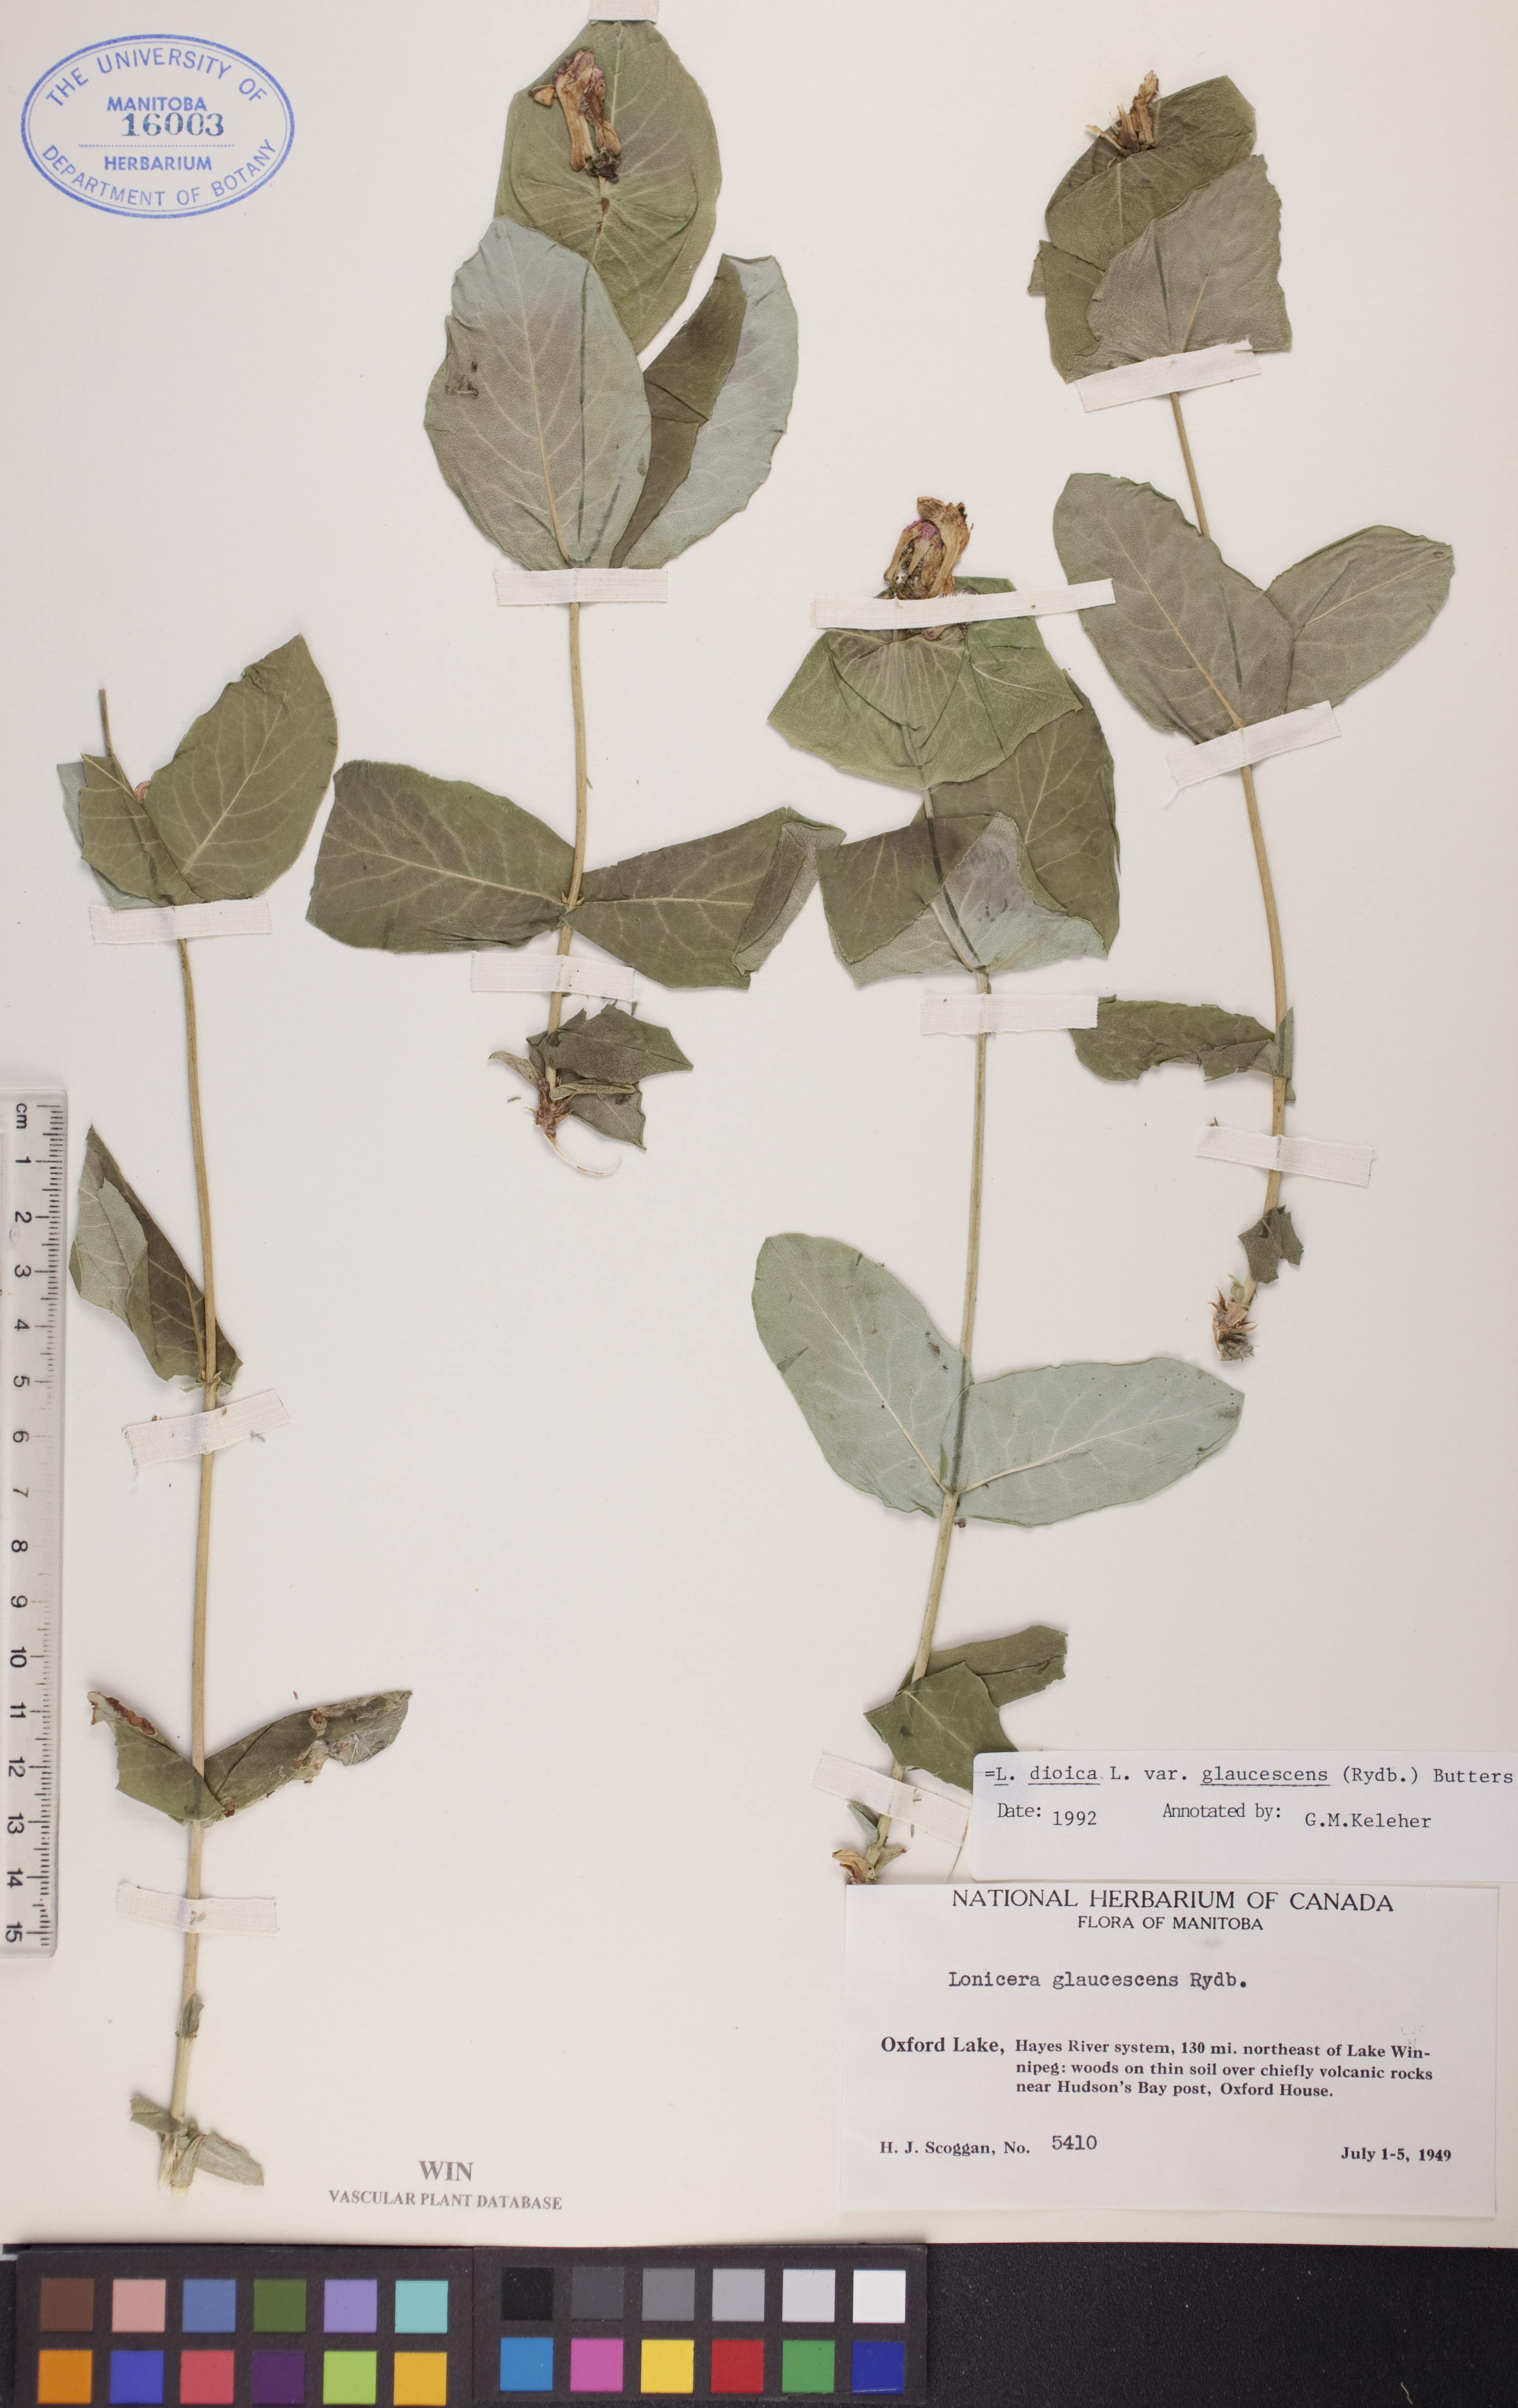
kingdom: Plantae
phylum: Tracheophyta
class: Magnoliopsida
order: Dipsacales
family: Caprifoliaceae
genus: Lonicera
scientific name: Lonicera dioica
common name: Limber honeysuckle
